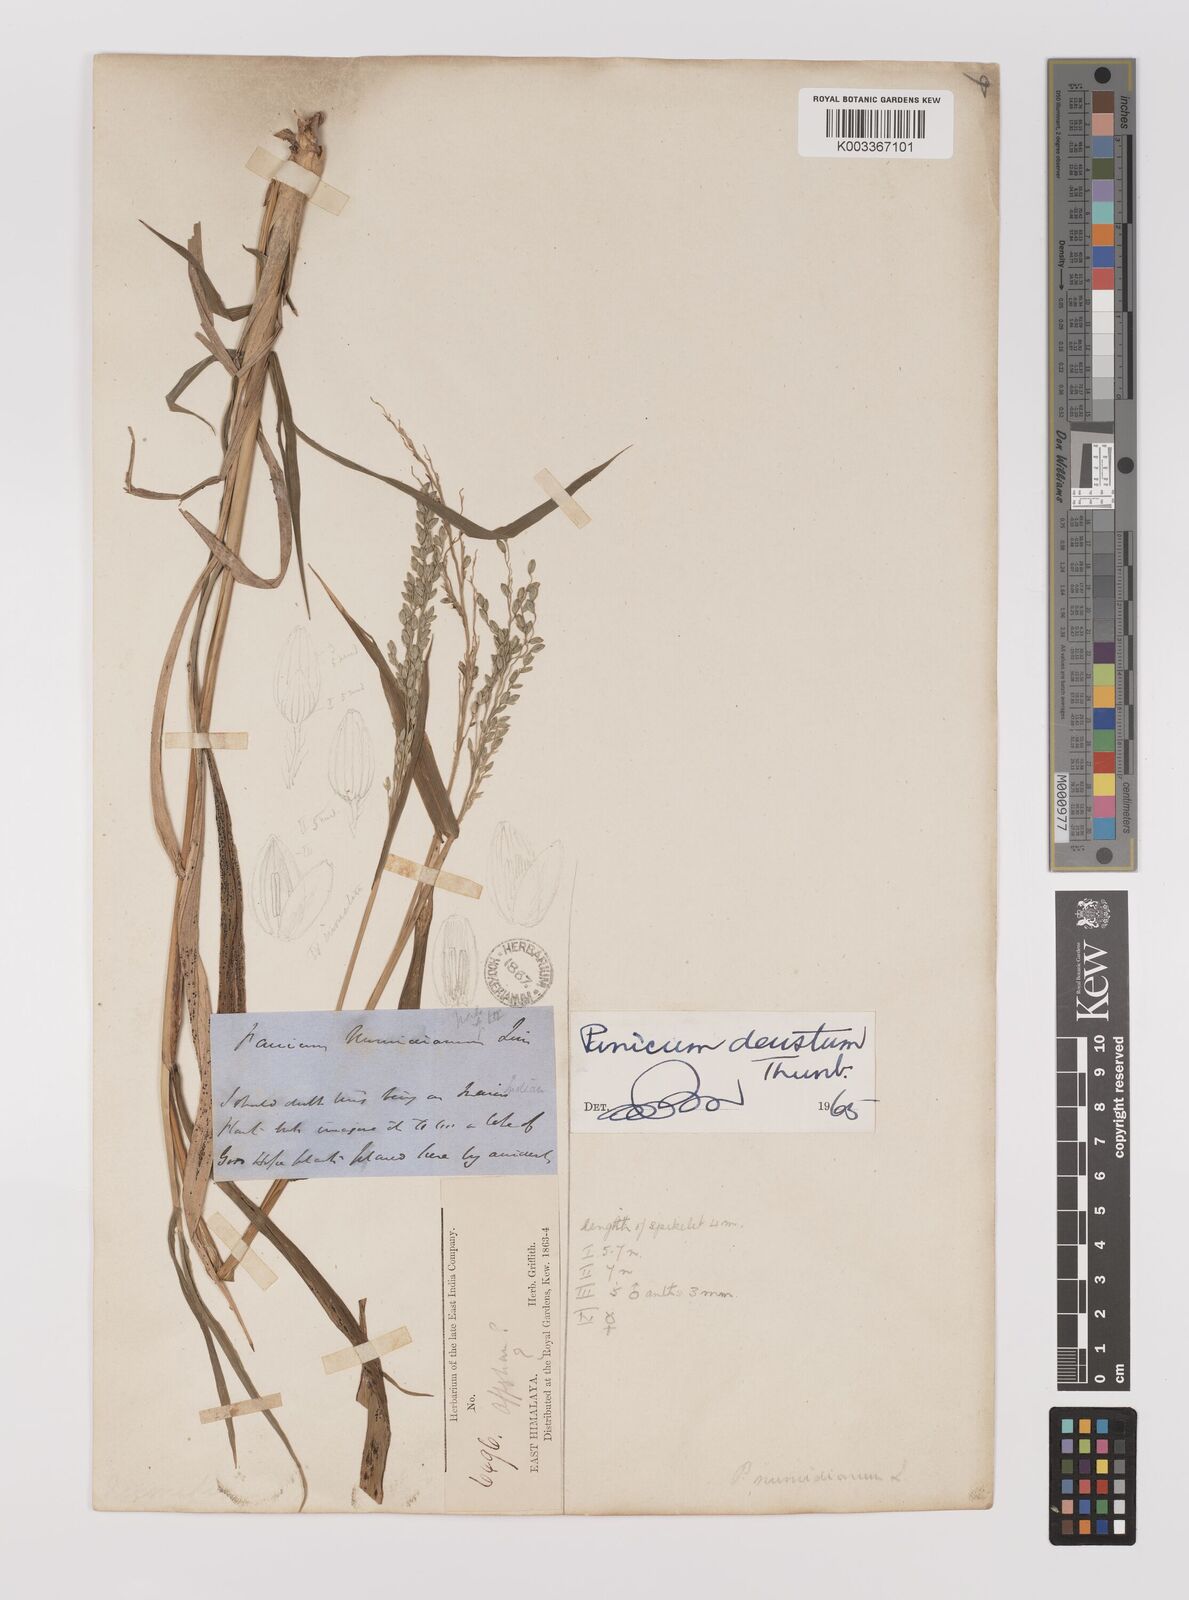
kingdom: Plantae
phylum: Tracheophyta
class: Liliopsida
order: Poales
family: Poaceae
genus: Panicum
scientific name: Panicum deustum
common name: Reed panicum
